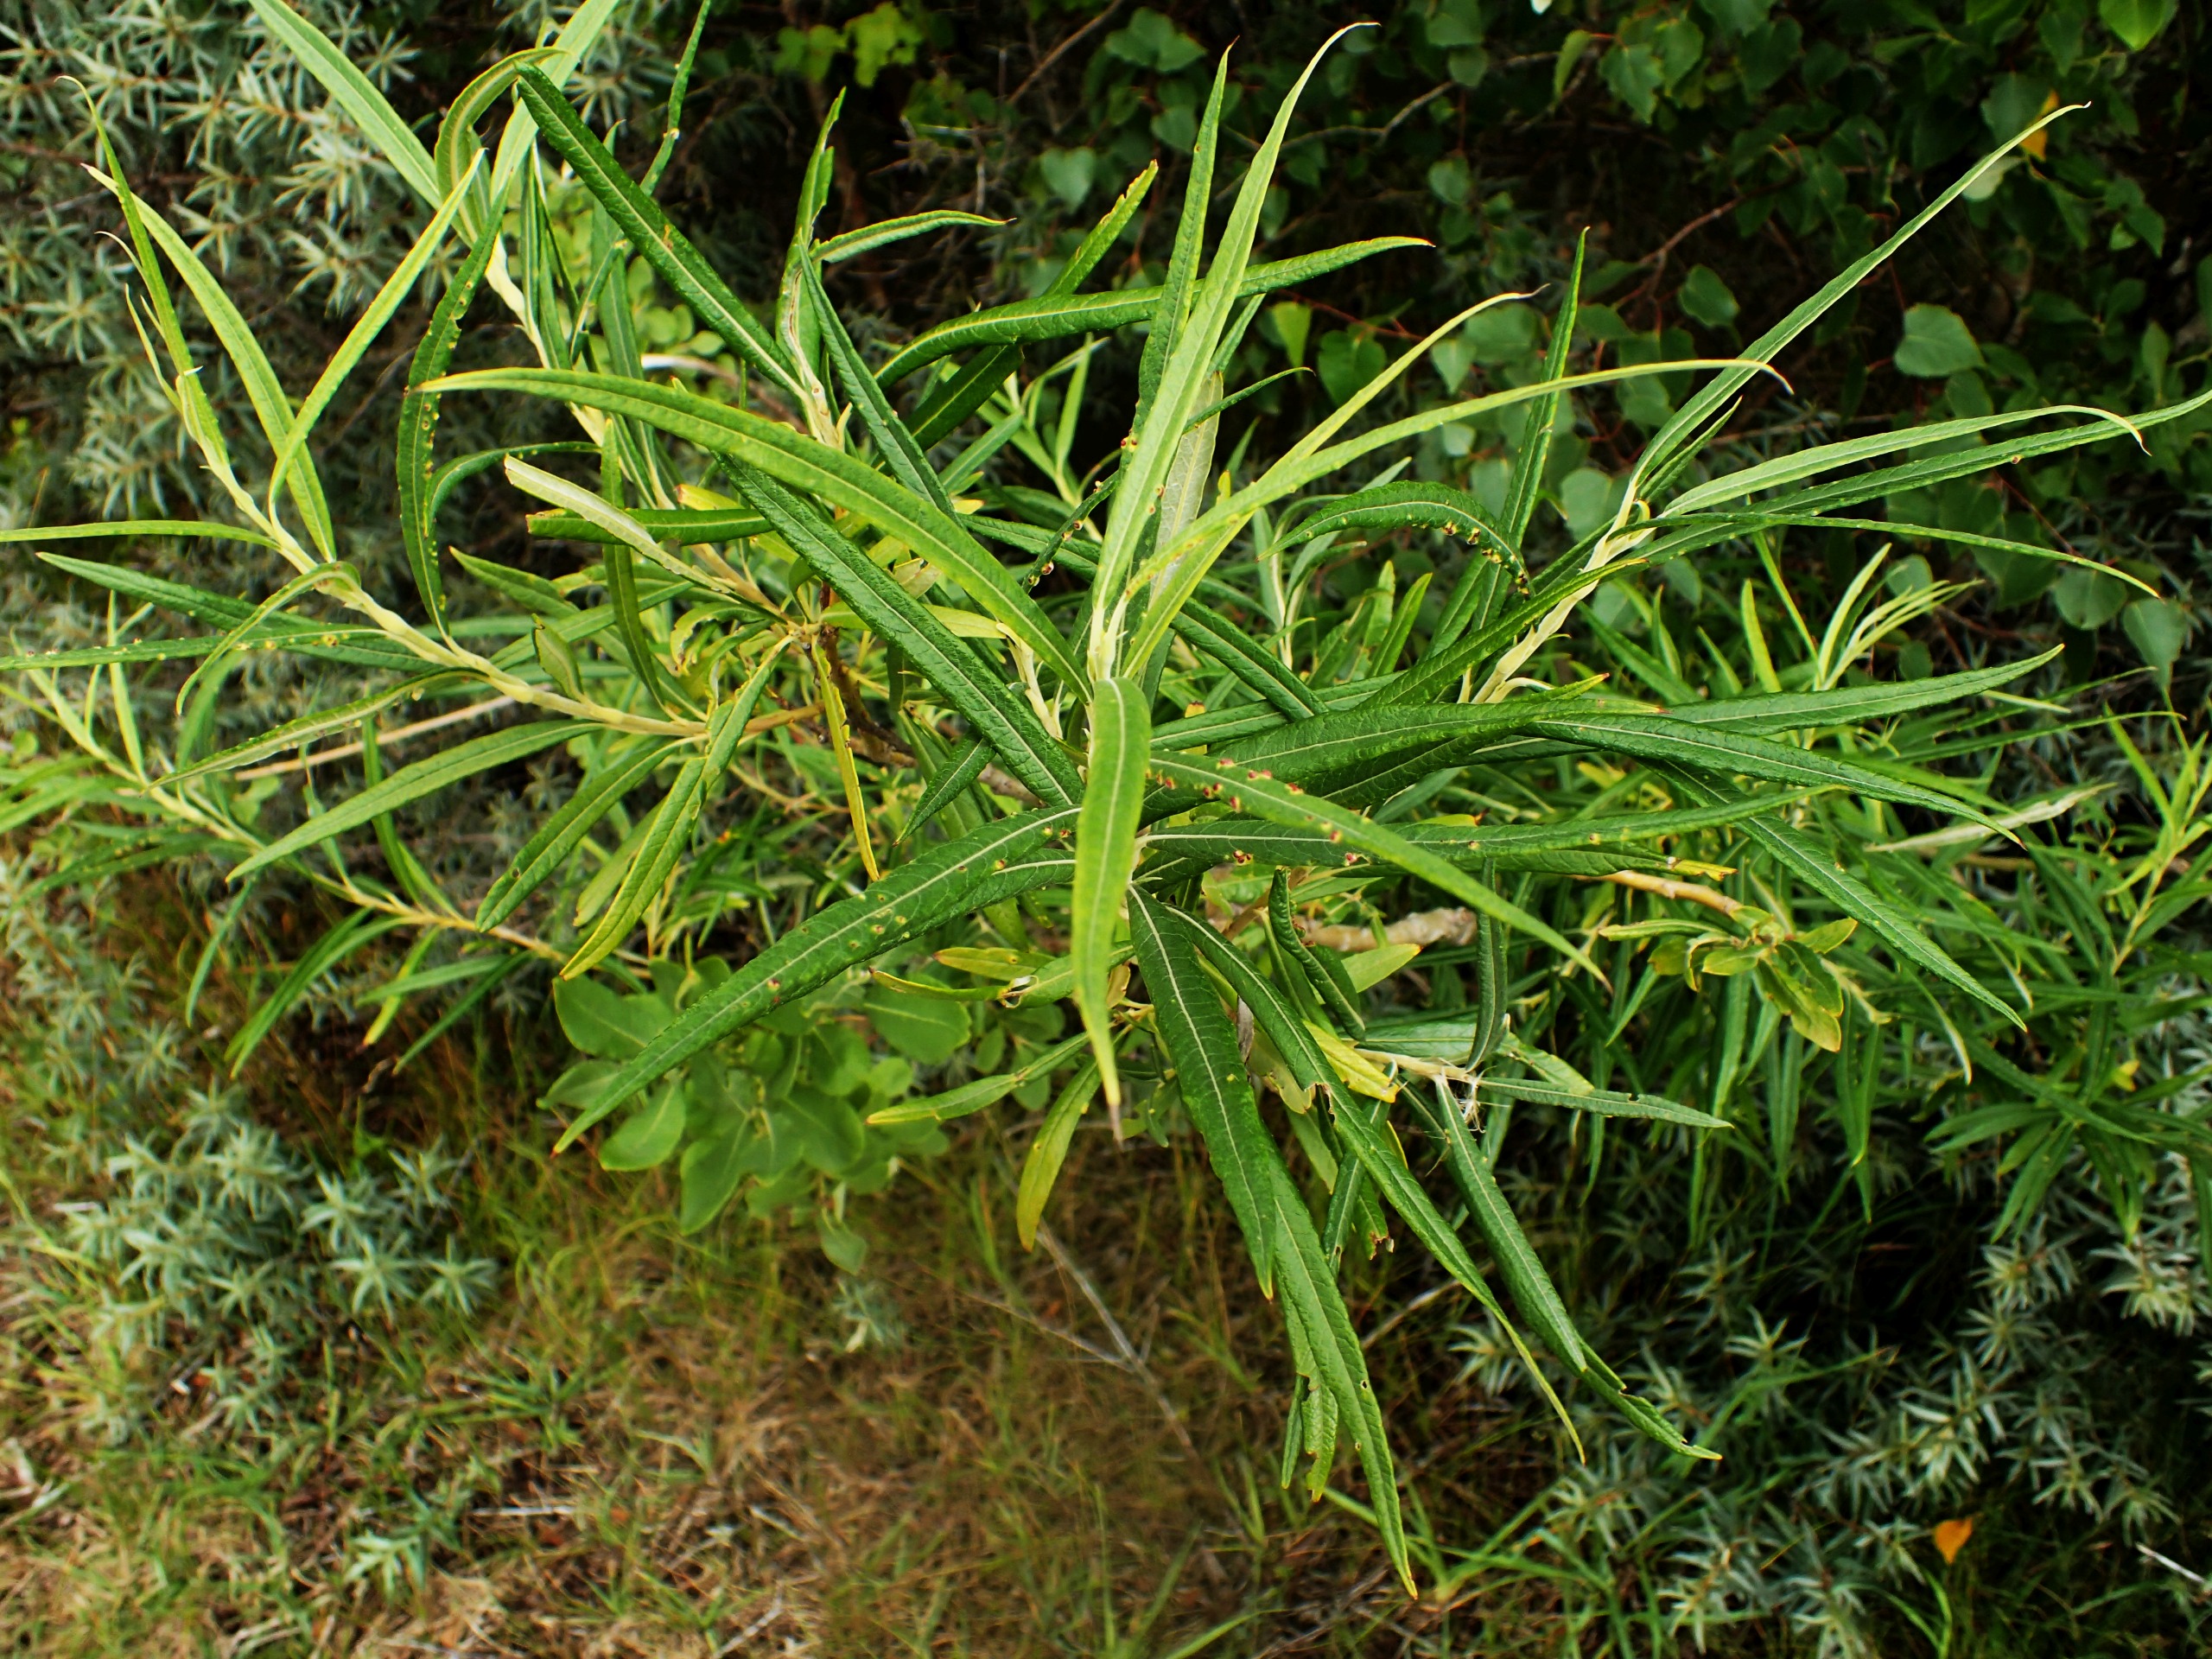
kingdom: Plantae
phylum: Tracheophyta
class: Magnoliopsida
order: Malpighiales
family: Salicaceae
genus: Salix
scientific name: Salix viminalis
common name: Bånd-pil
